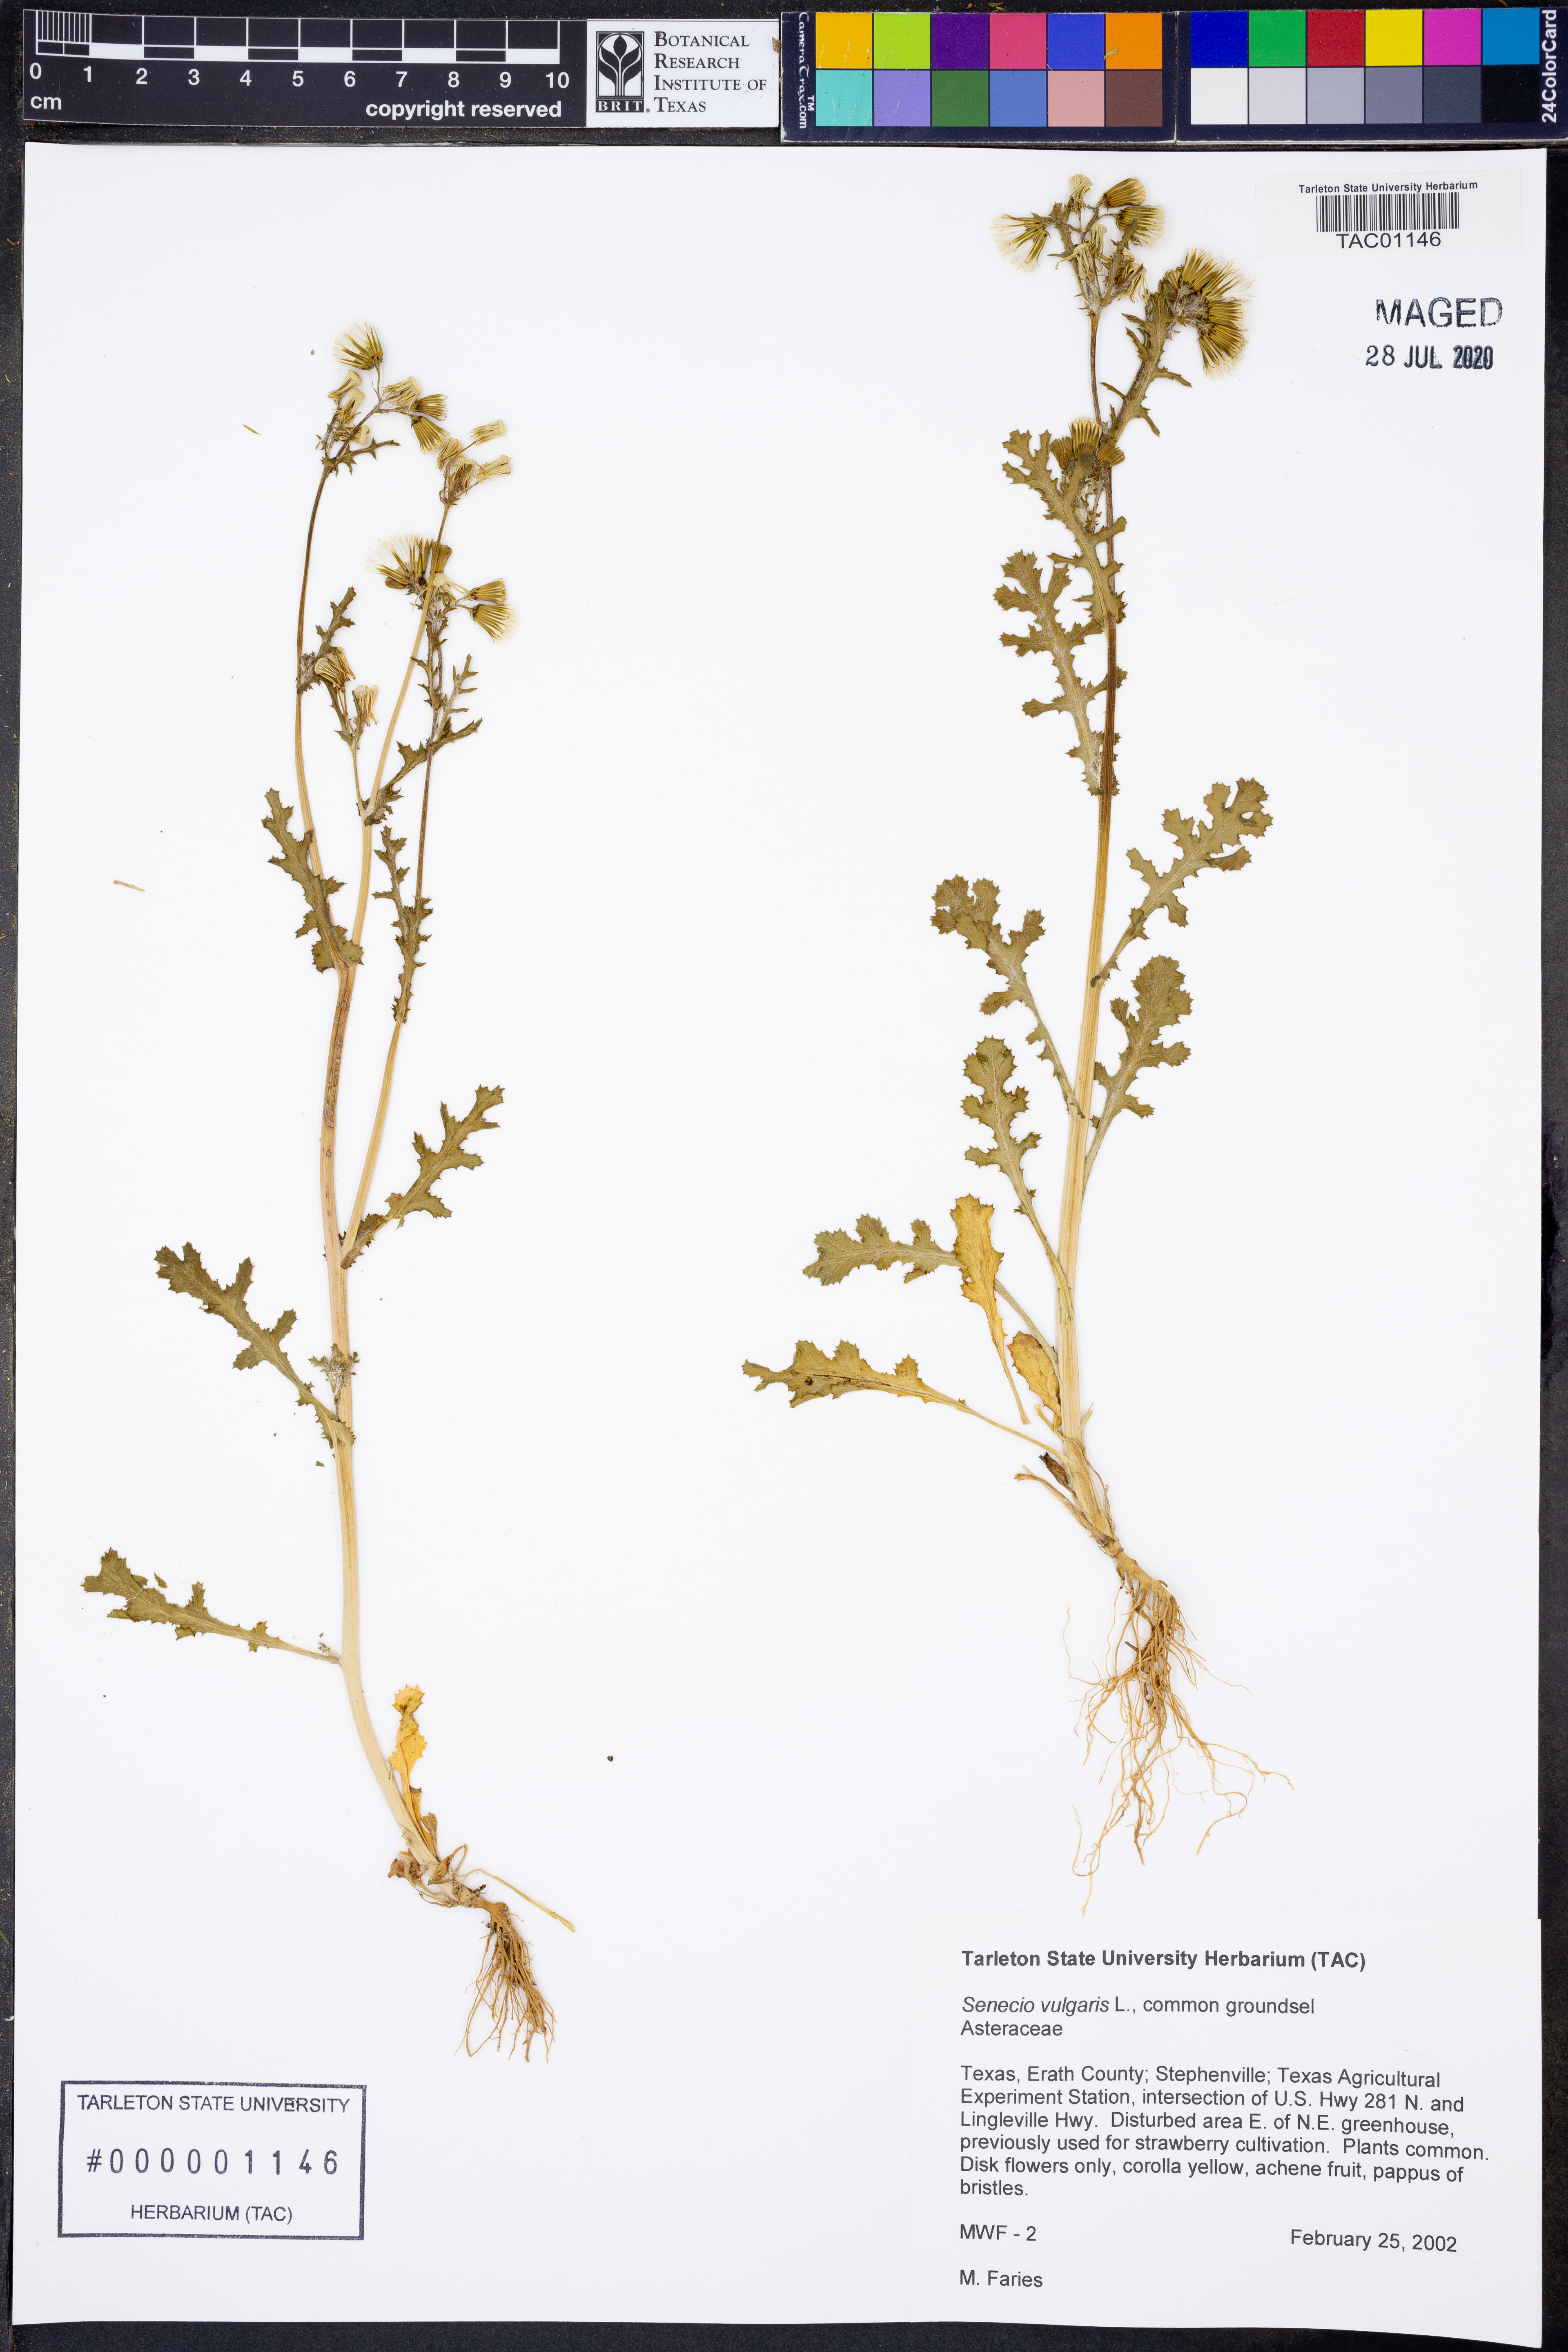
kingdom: Plantae
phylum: Tracheophyta
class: Magnoliopsida
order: Asterales
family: Asteraceae
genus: Senecio
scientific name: Senecio vulgaris
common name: Old-man-in-the-spring
